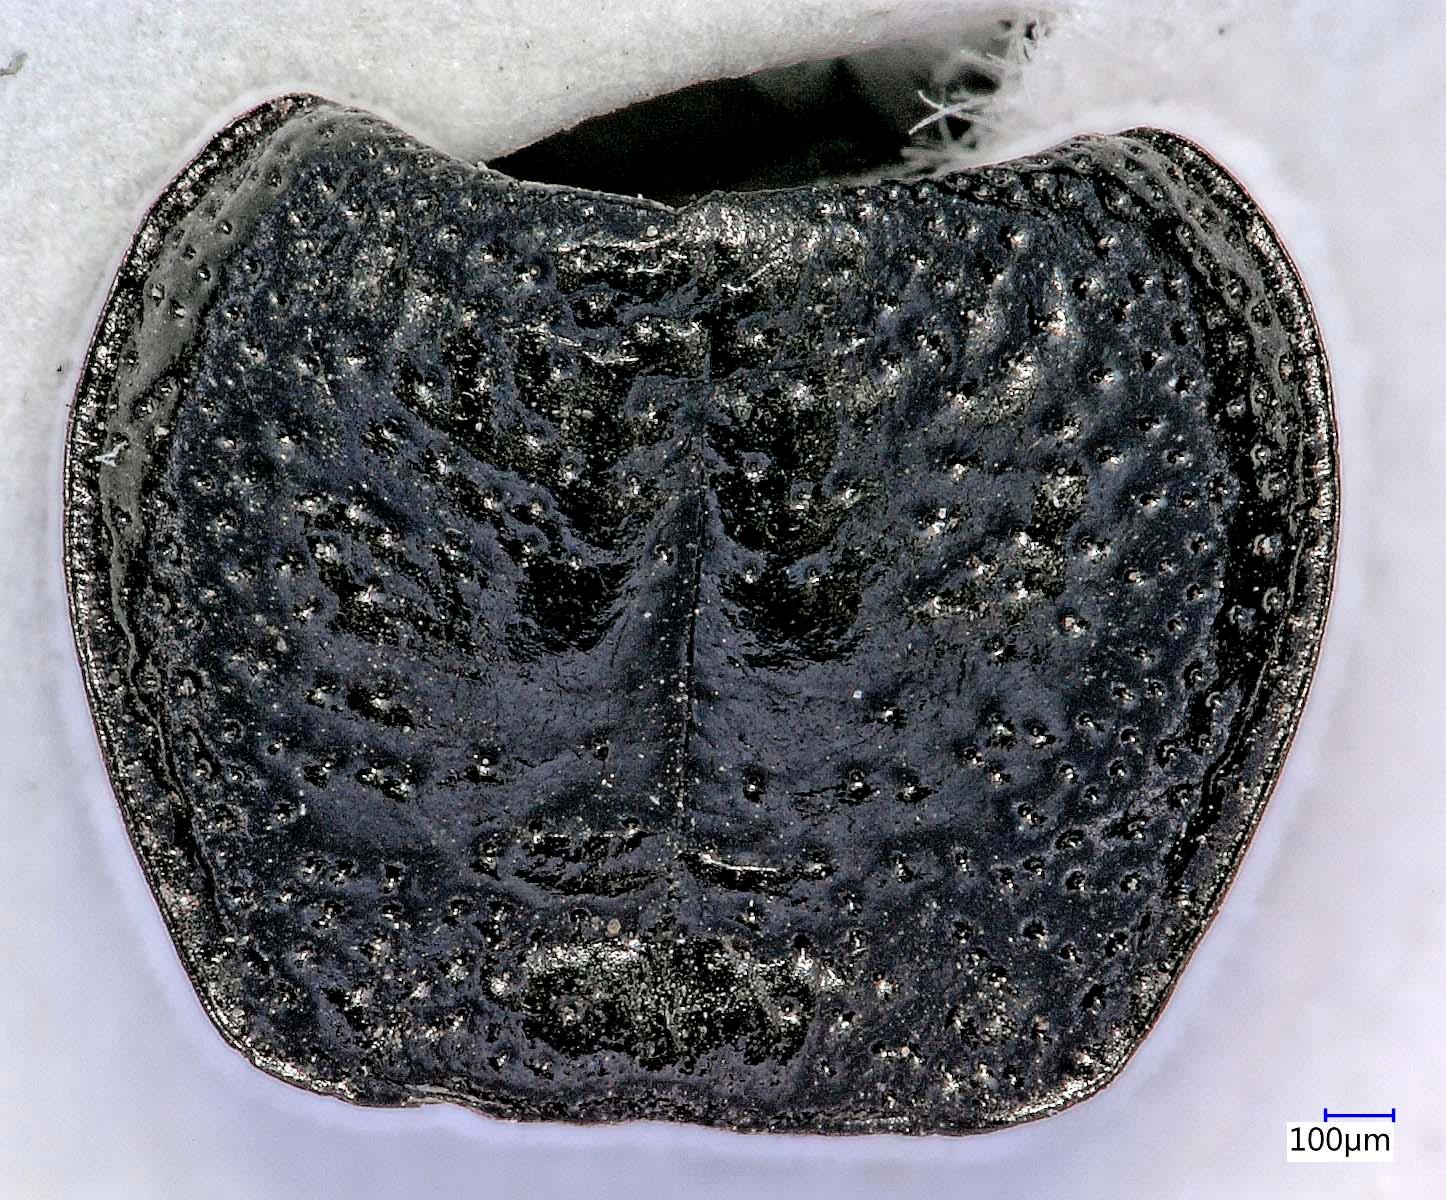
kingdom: Animalia
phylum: Arthropoda
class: Insecta
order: Coleoptera
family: Carabidae
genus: Dicheirus
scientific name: Dicheirus dilatatus
